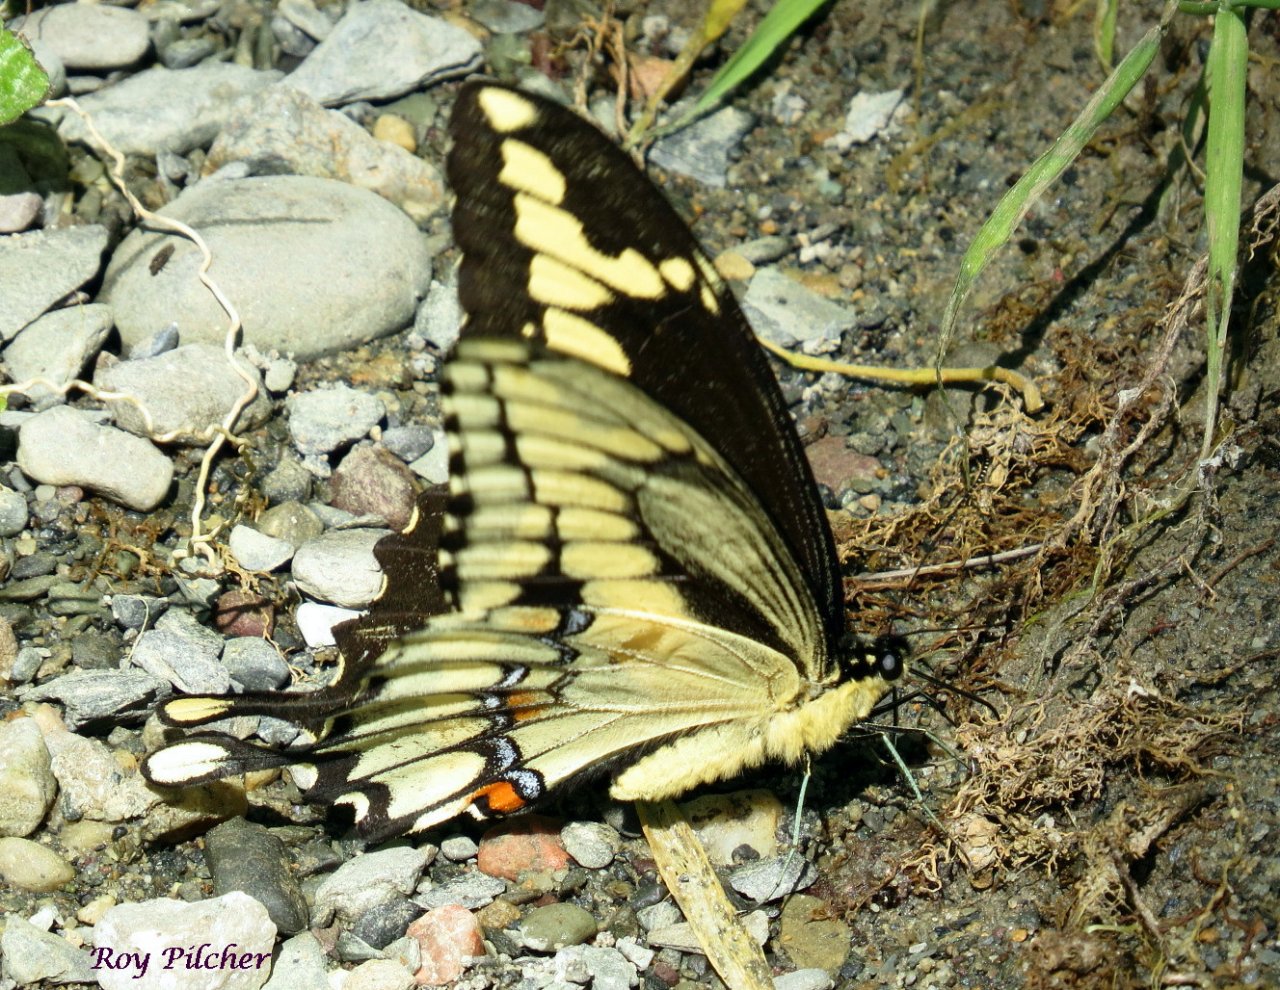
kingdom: Animalia
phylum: Arthropoda
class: Insecta
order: Lepidoptera
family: Papilionidae
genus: Papilio
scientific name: Papilio cresphontes
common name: Eastern Giant Swallowtail
